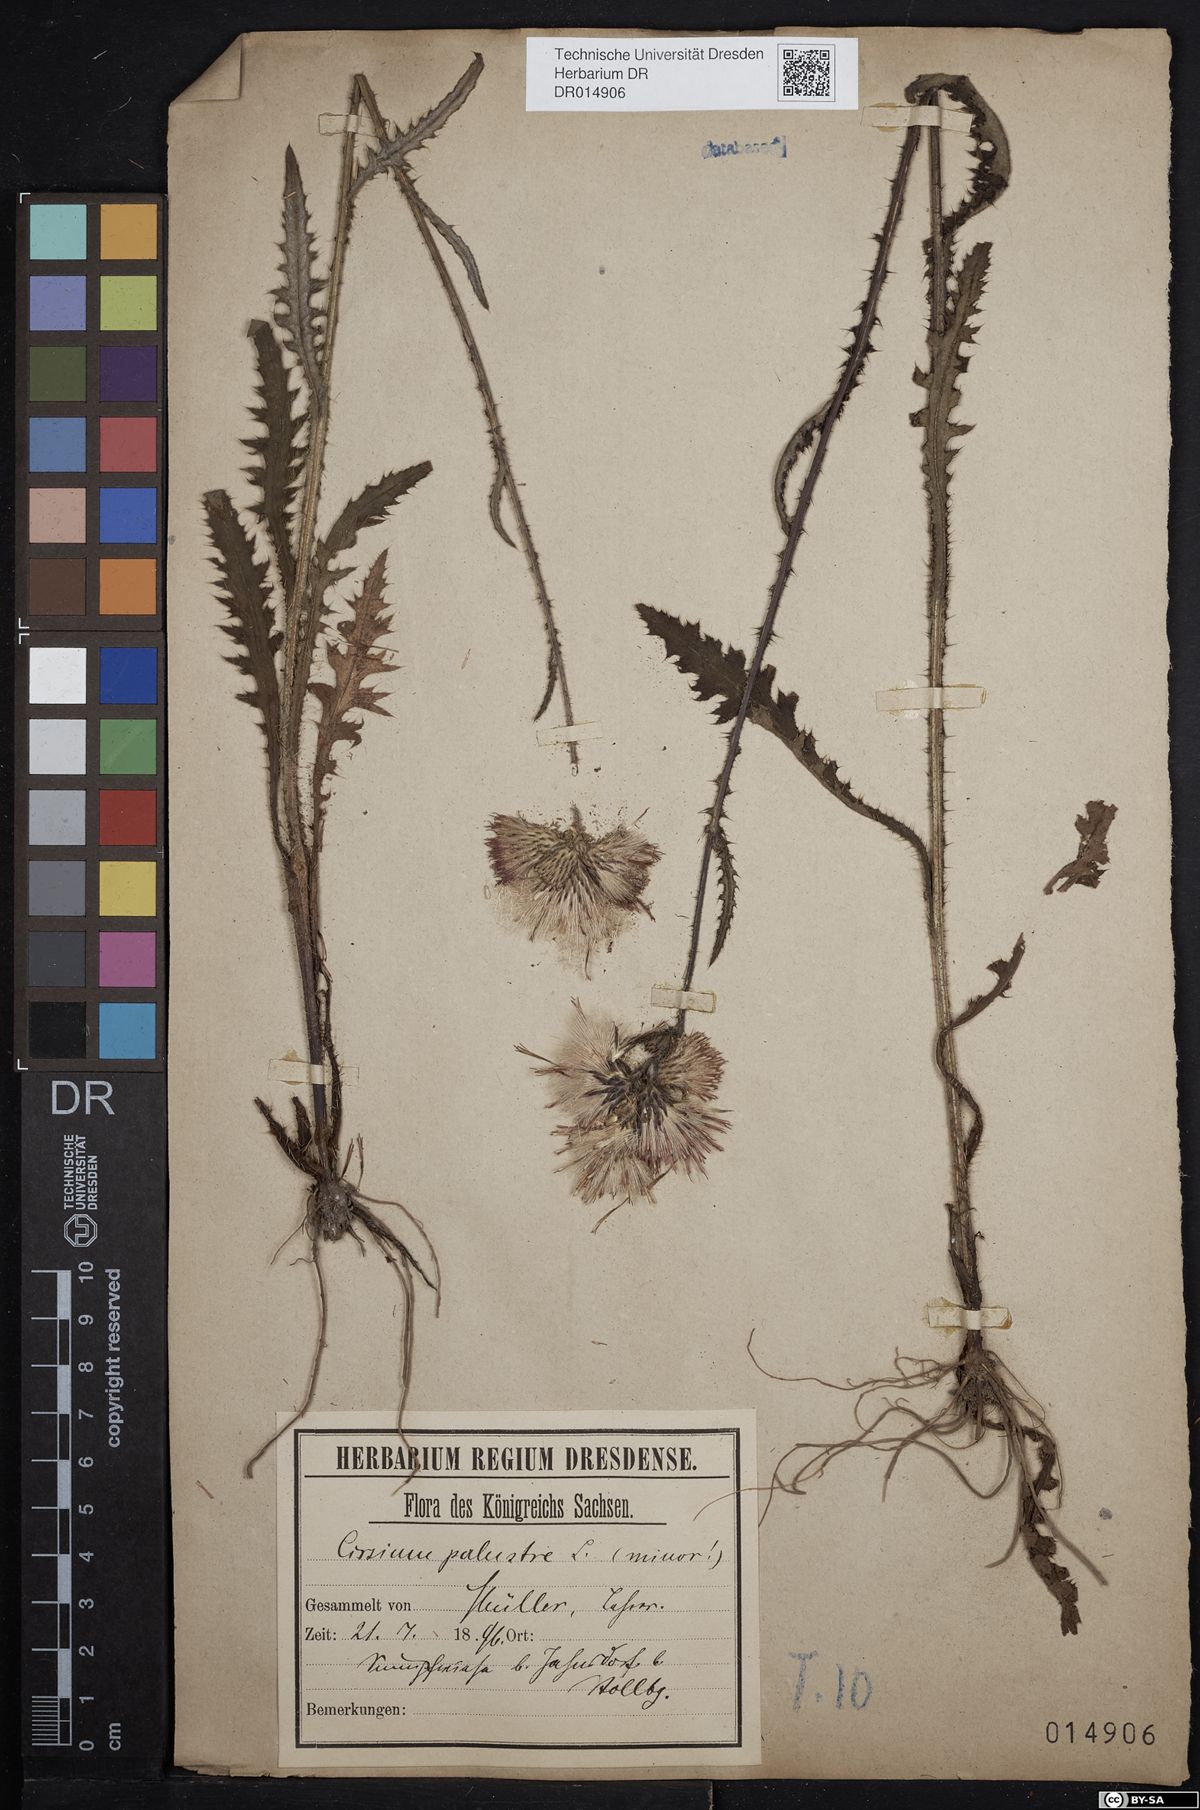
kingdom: Plantae
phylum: Tracheophyta
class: Magnoliopsida
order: Asterales
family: Asteraceae
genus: Cirsium
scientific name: Cirsium palustre
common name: Marsh thistle
